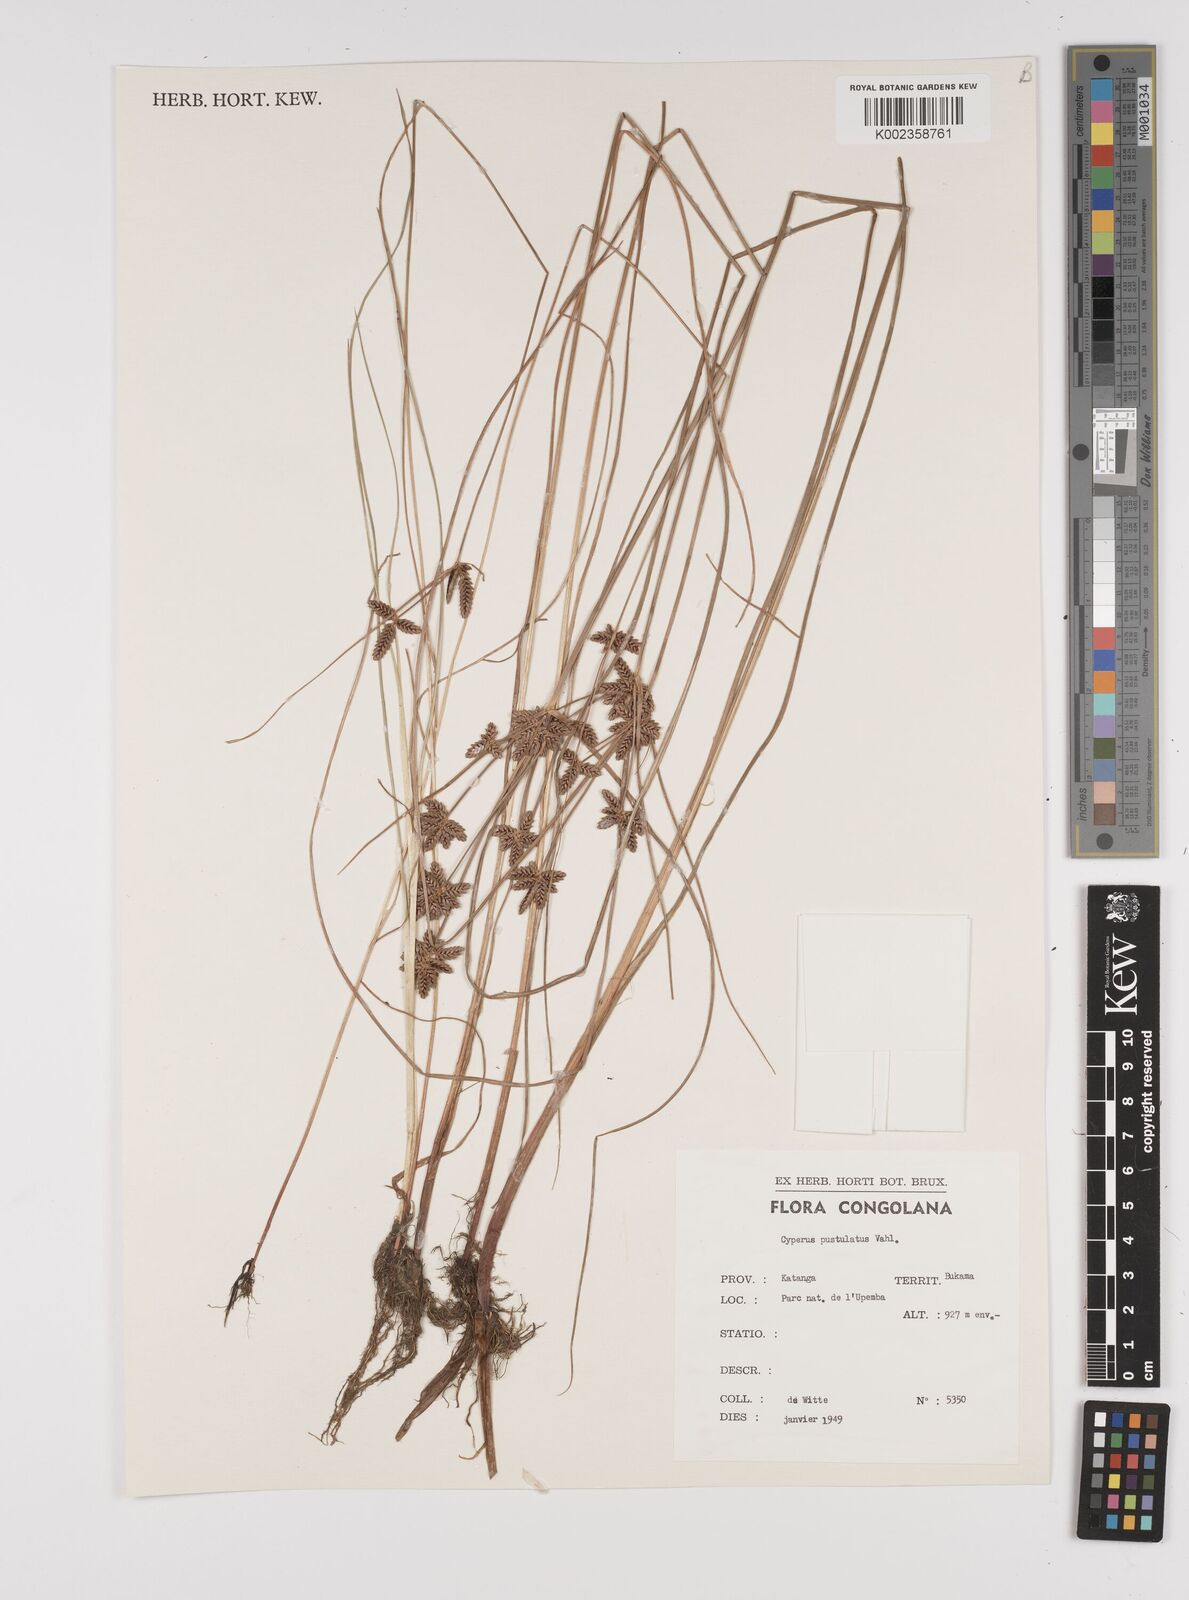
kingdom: Plantae
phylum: Tracheophyta
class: Liliopsida
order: Poales
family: Cyperaceae
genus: Cyperus
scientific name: Cyperus pustulatus
